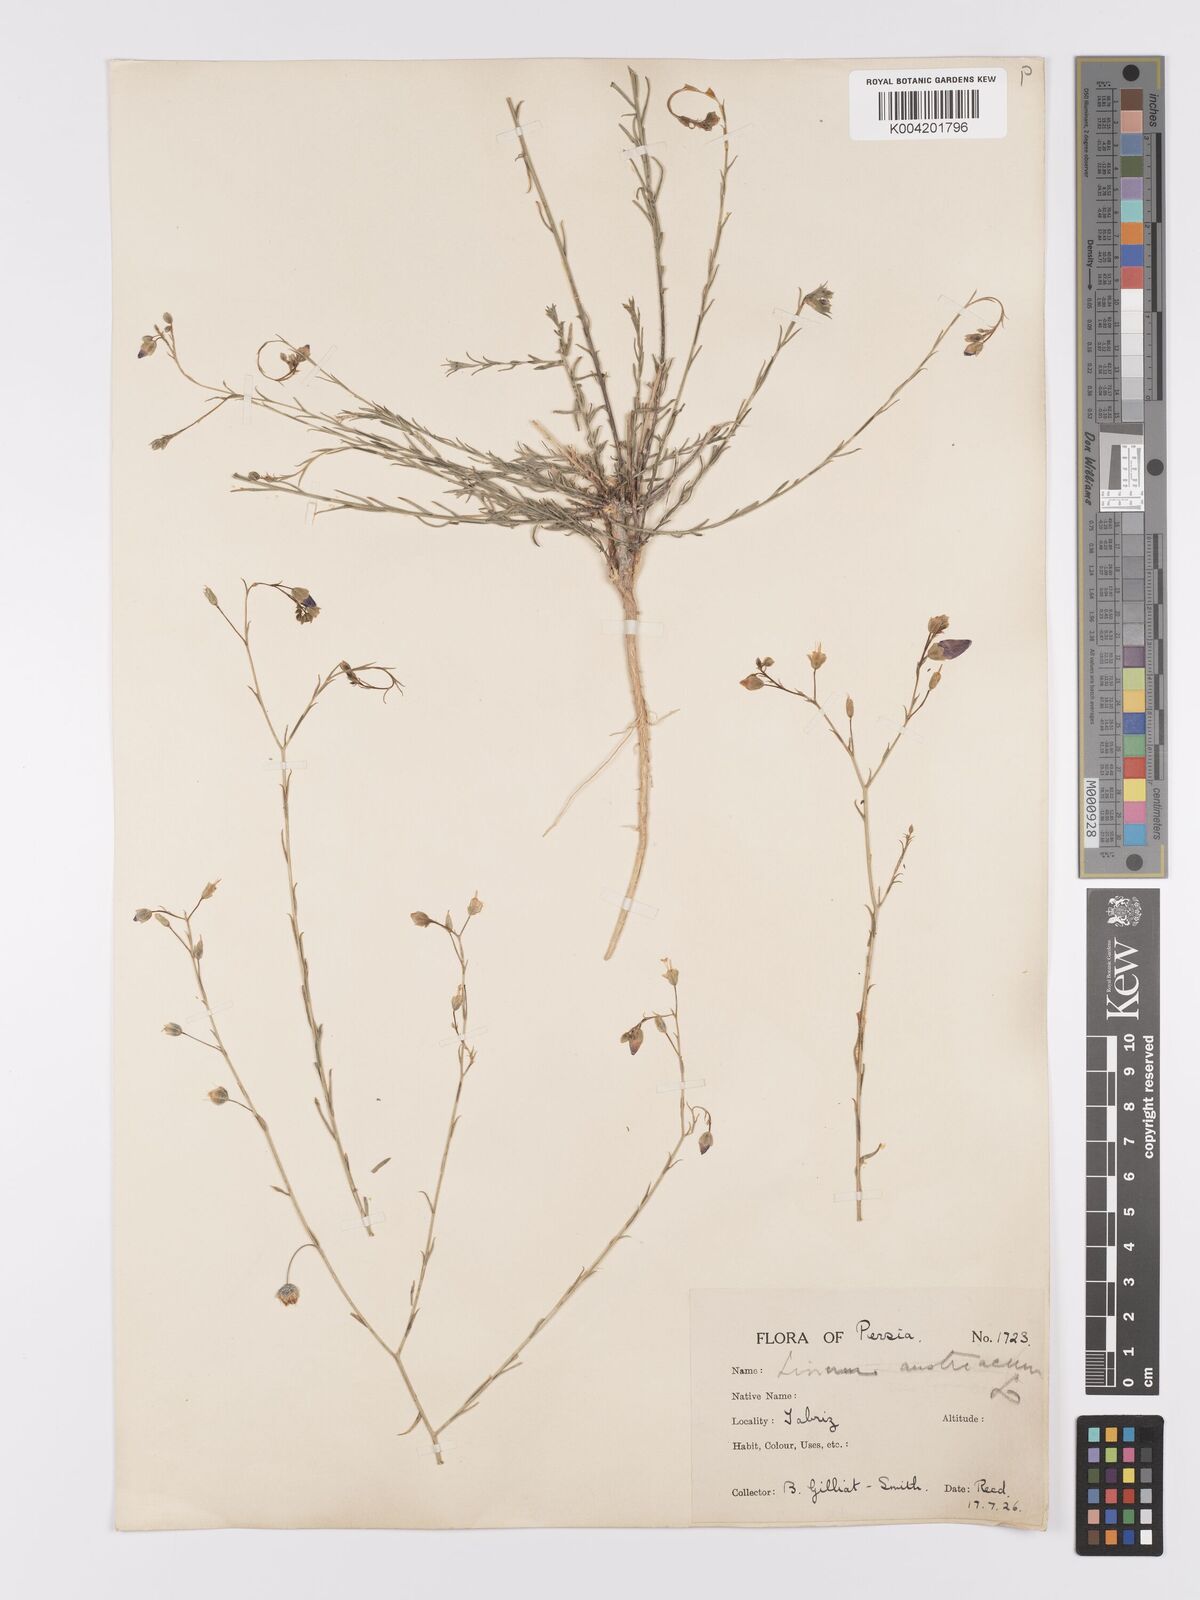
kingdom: Plantae
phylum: Tracheophyta
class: Magnoliopsida
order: Malpighiales
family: Linaceae
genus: Linum
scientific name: Linum
